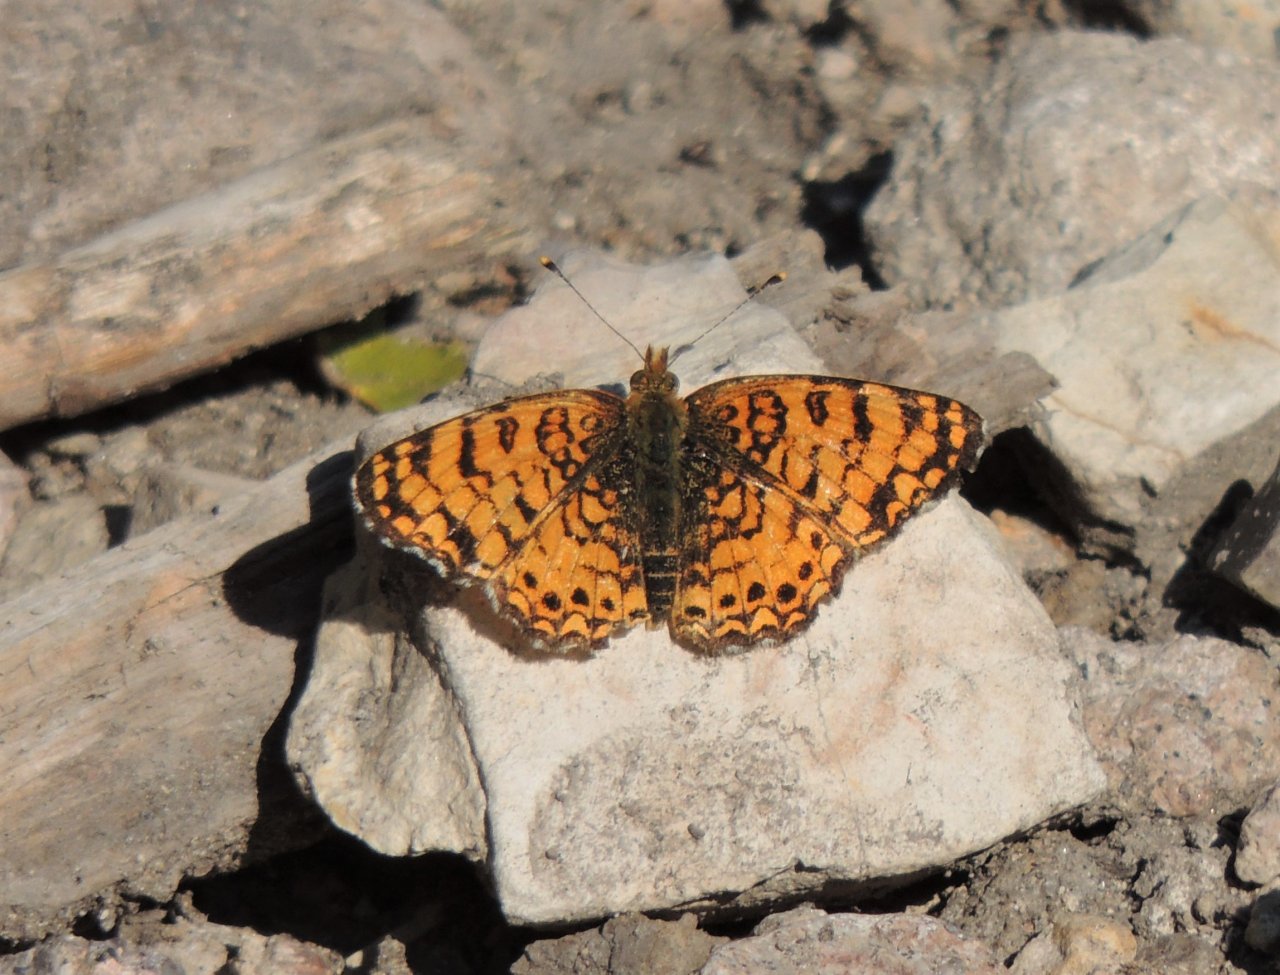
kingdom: Animalia
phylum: Arthropoda
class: Insecta
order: Lepidoptera
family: Nymphalidae
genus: Eresia
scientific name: Eresia aveyrona
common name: Mylitta Crescent
